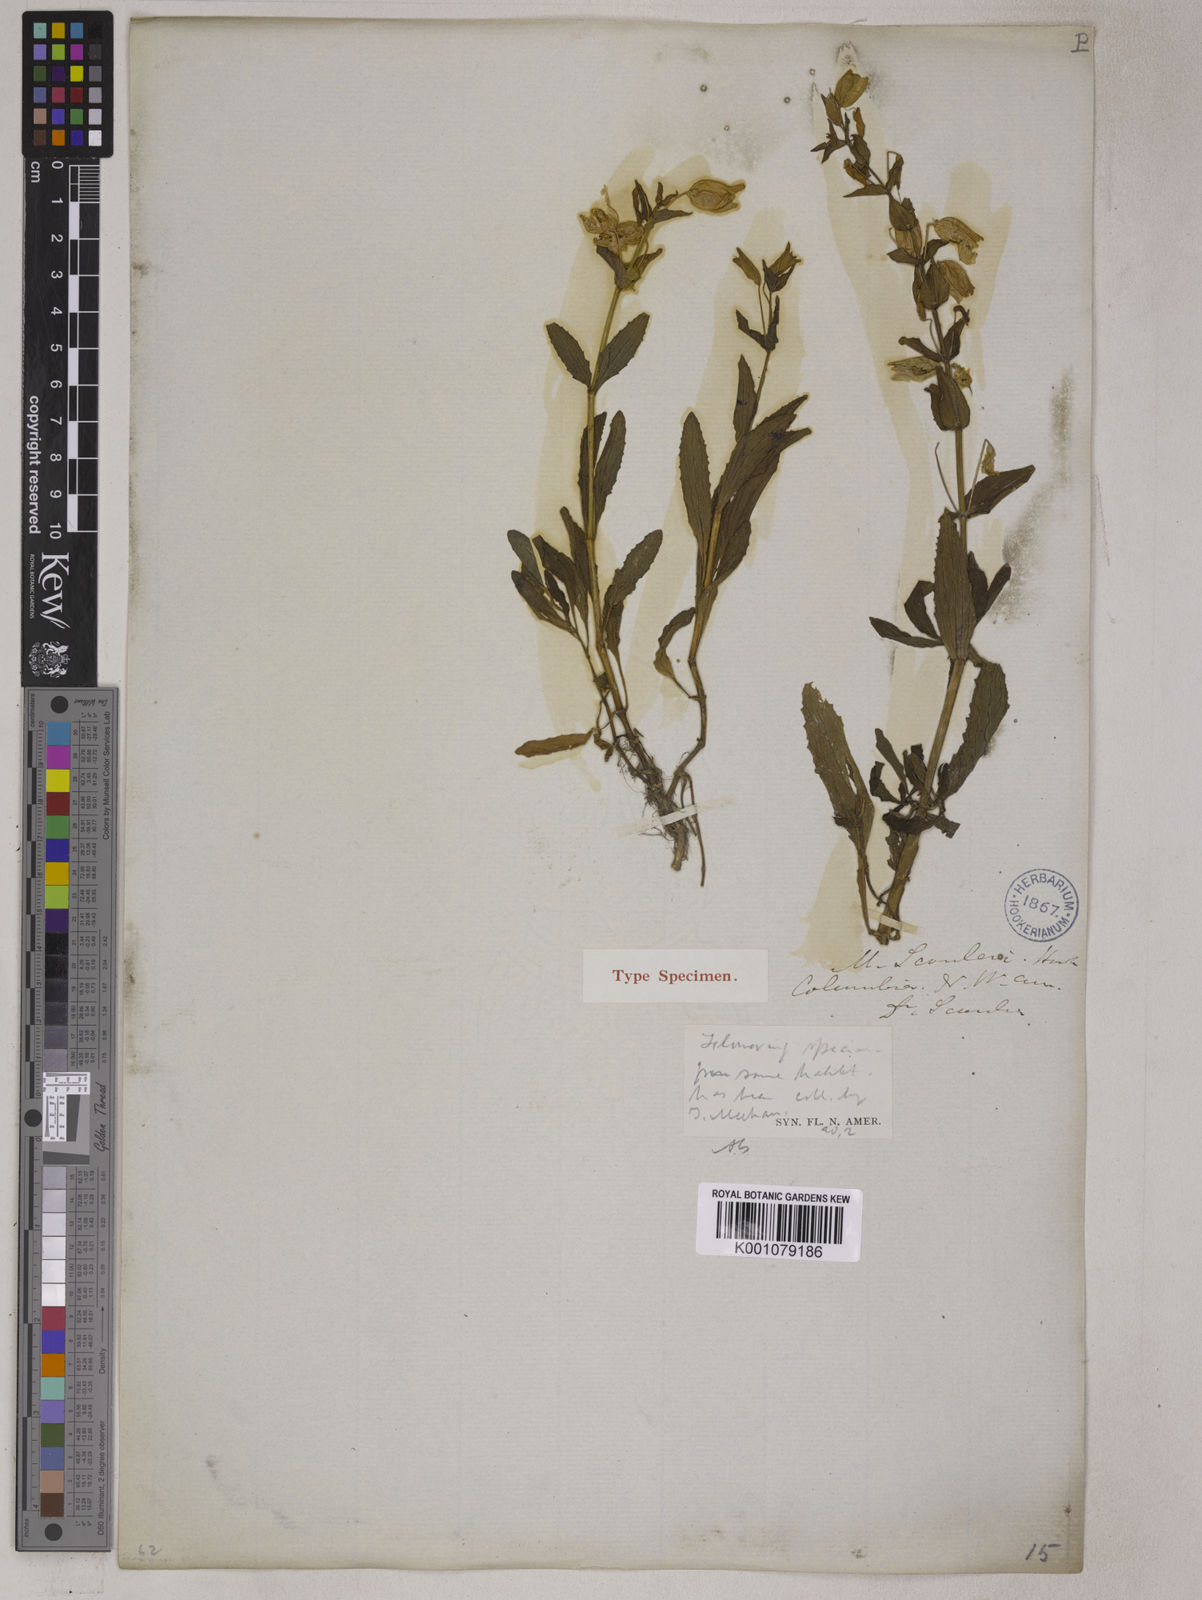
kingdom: Plantae
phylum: Tracheophyta
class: Magnoliopsida
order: Lamiales
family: Phrymaceae
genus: Erythranthe
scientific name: Erythranthe guttata
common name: Monkeyflower
